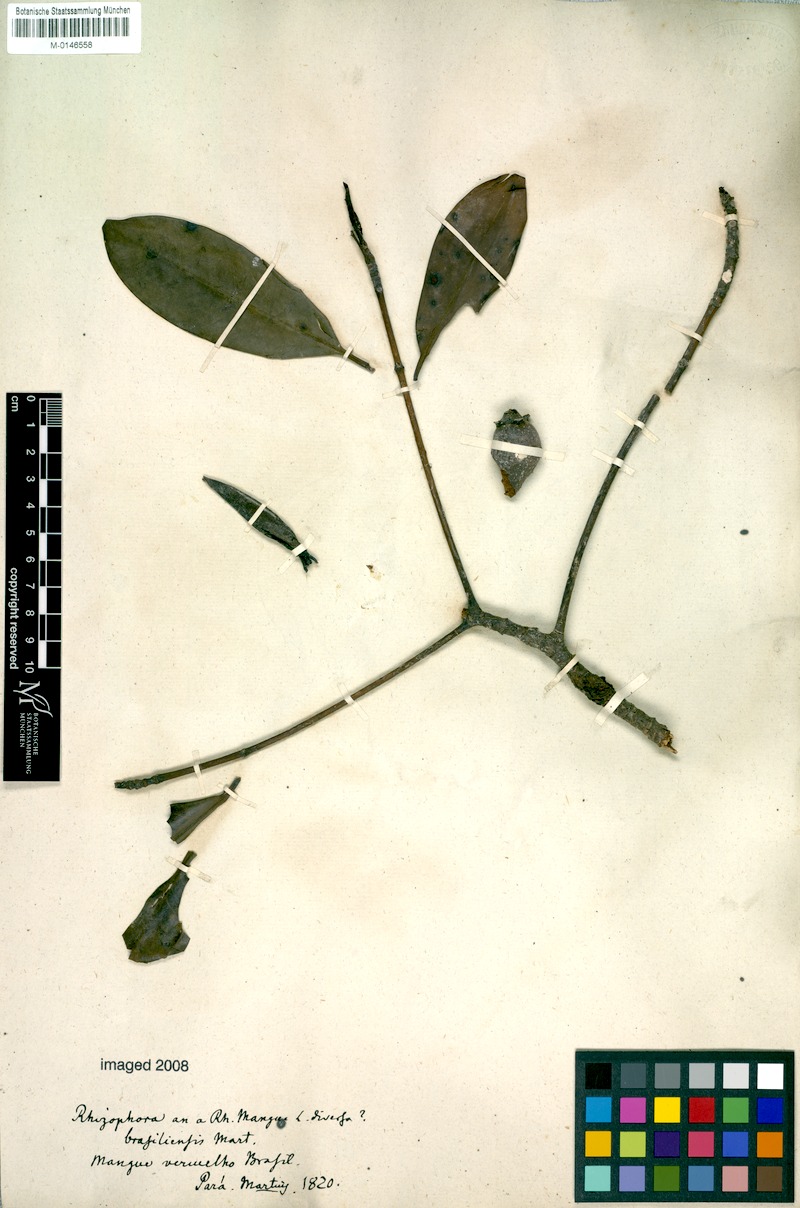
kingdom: Plantae
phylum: Tracheophyta
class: Magnoliopsida
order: Malpighiales
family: Rhizophoraceae
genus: Rhizophora
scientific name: Rhizophora mangle
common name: Red mangrove
